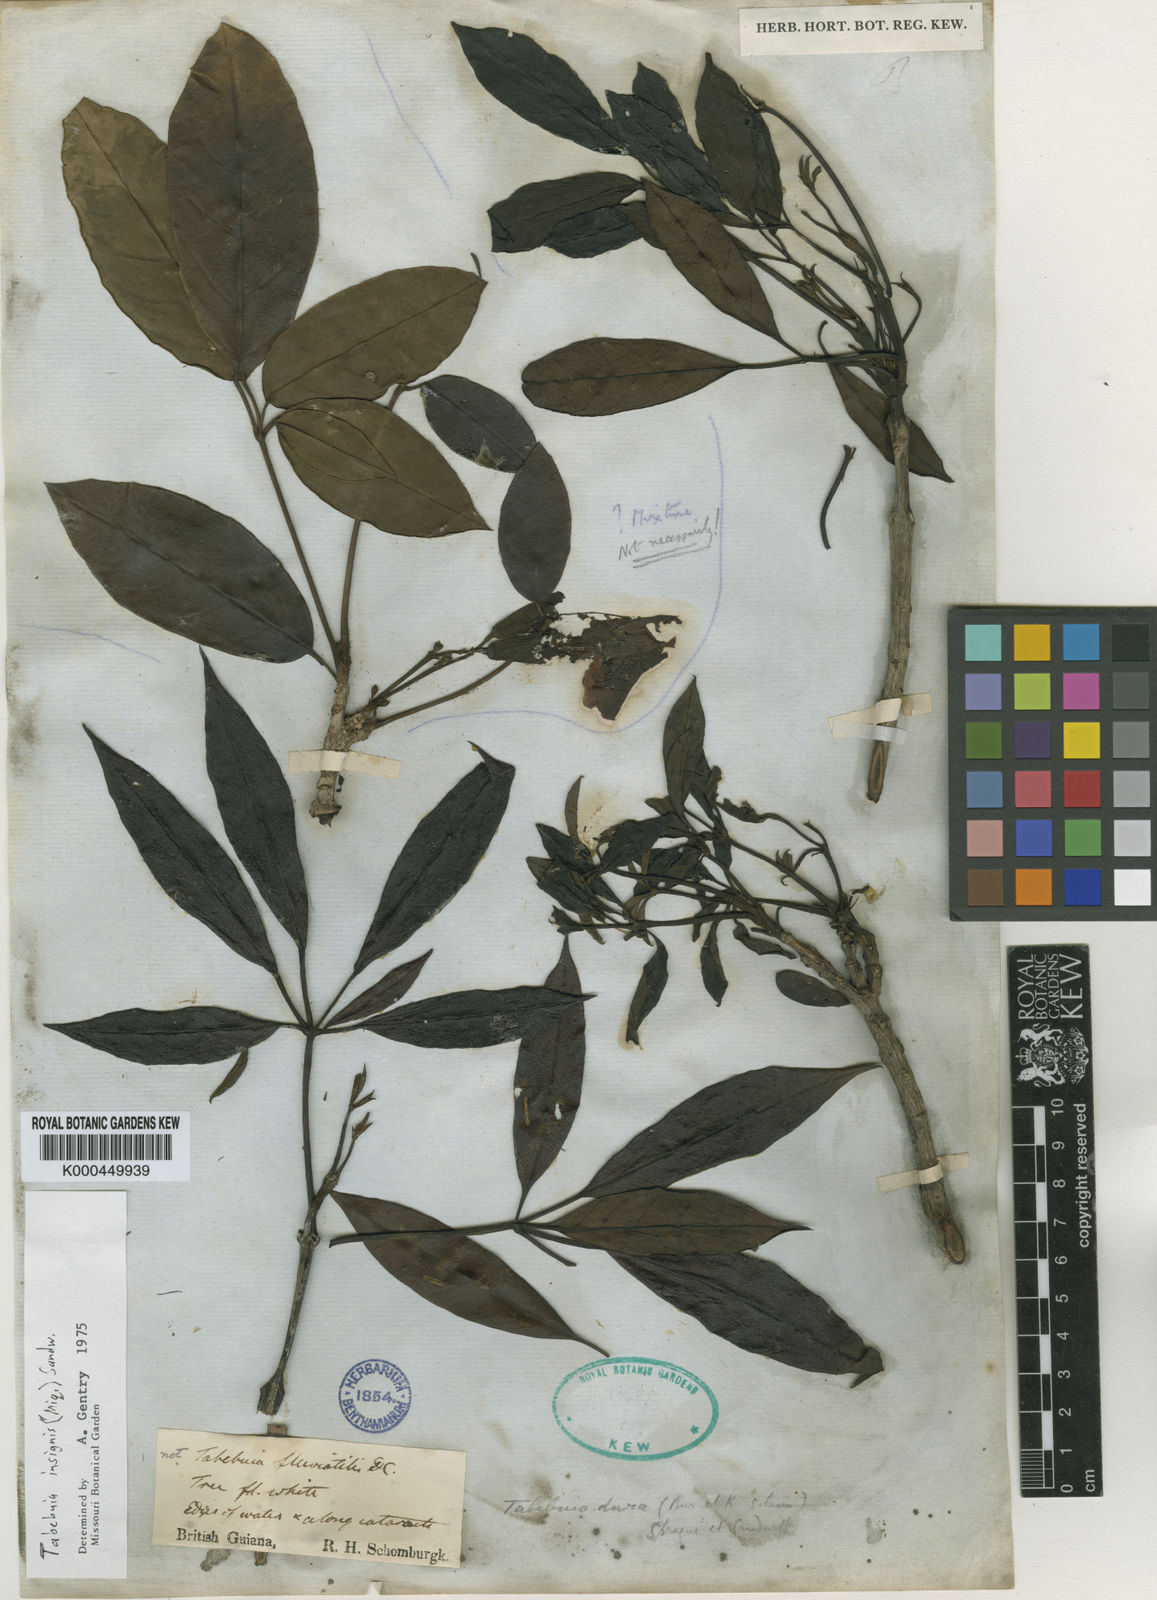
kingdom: Plantae
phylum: Tracheophyta
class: Magnoliopsida
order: Lamiales
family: Bignoniaceae
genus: Tabebuia
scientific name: Tabebuia insignis
